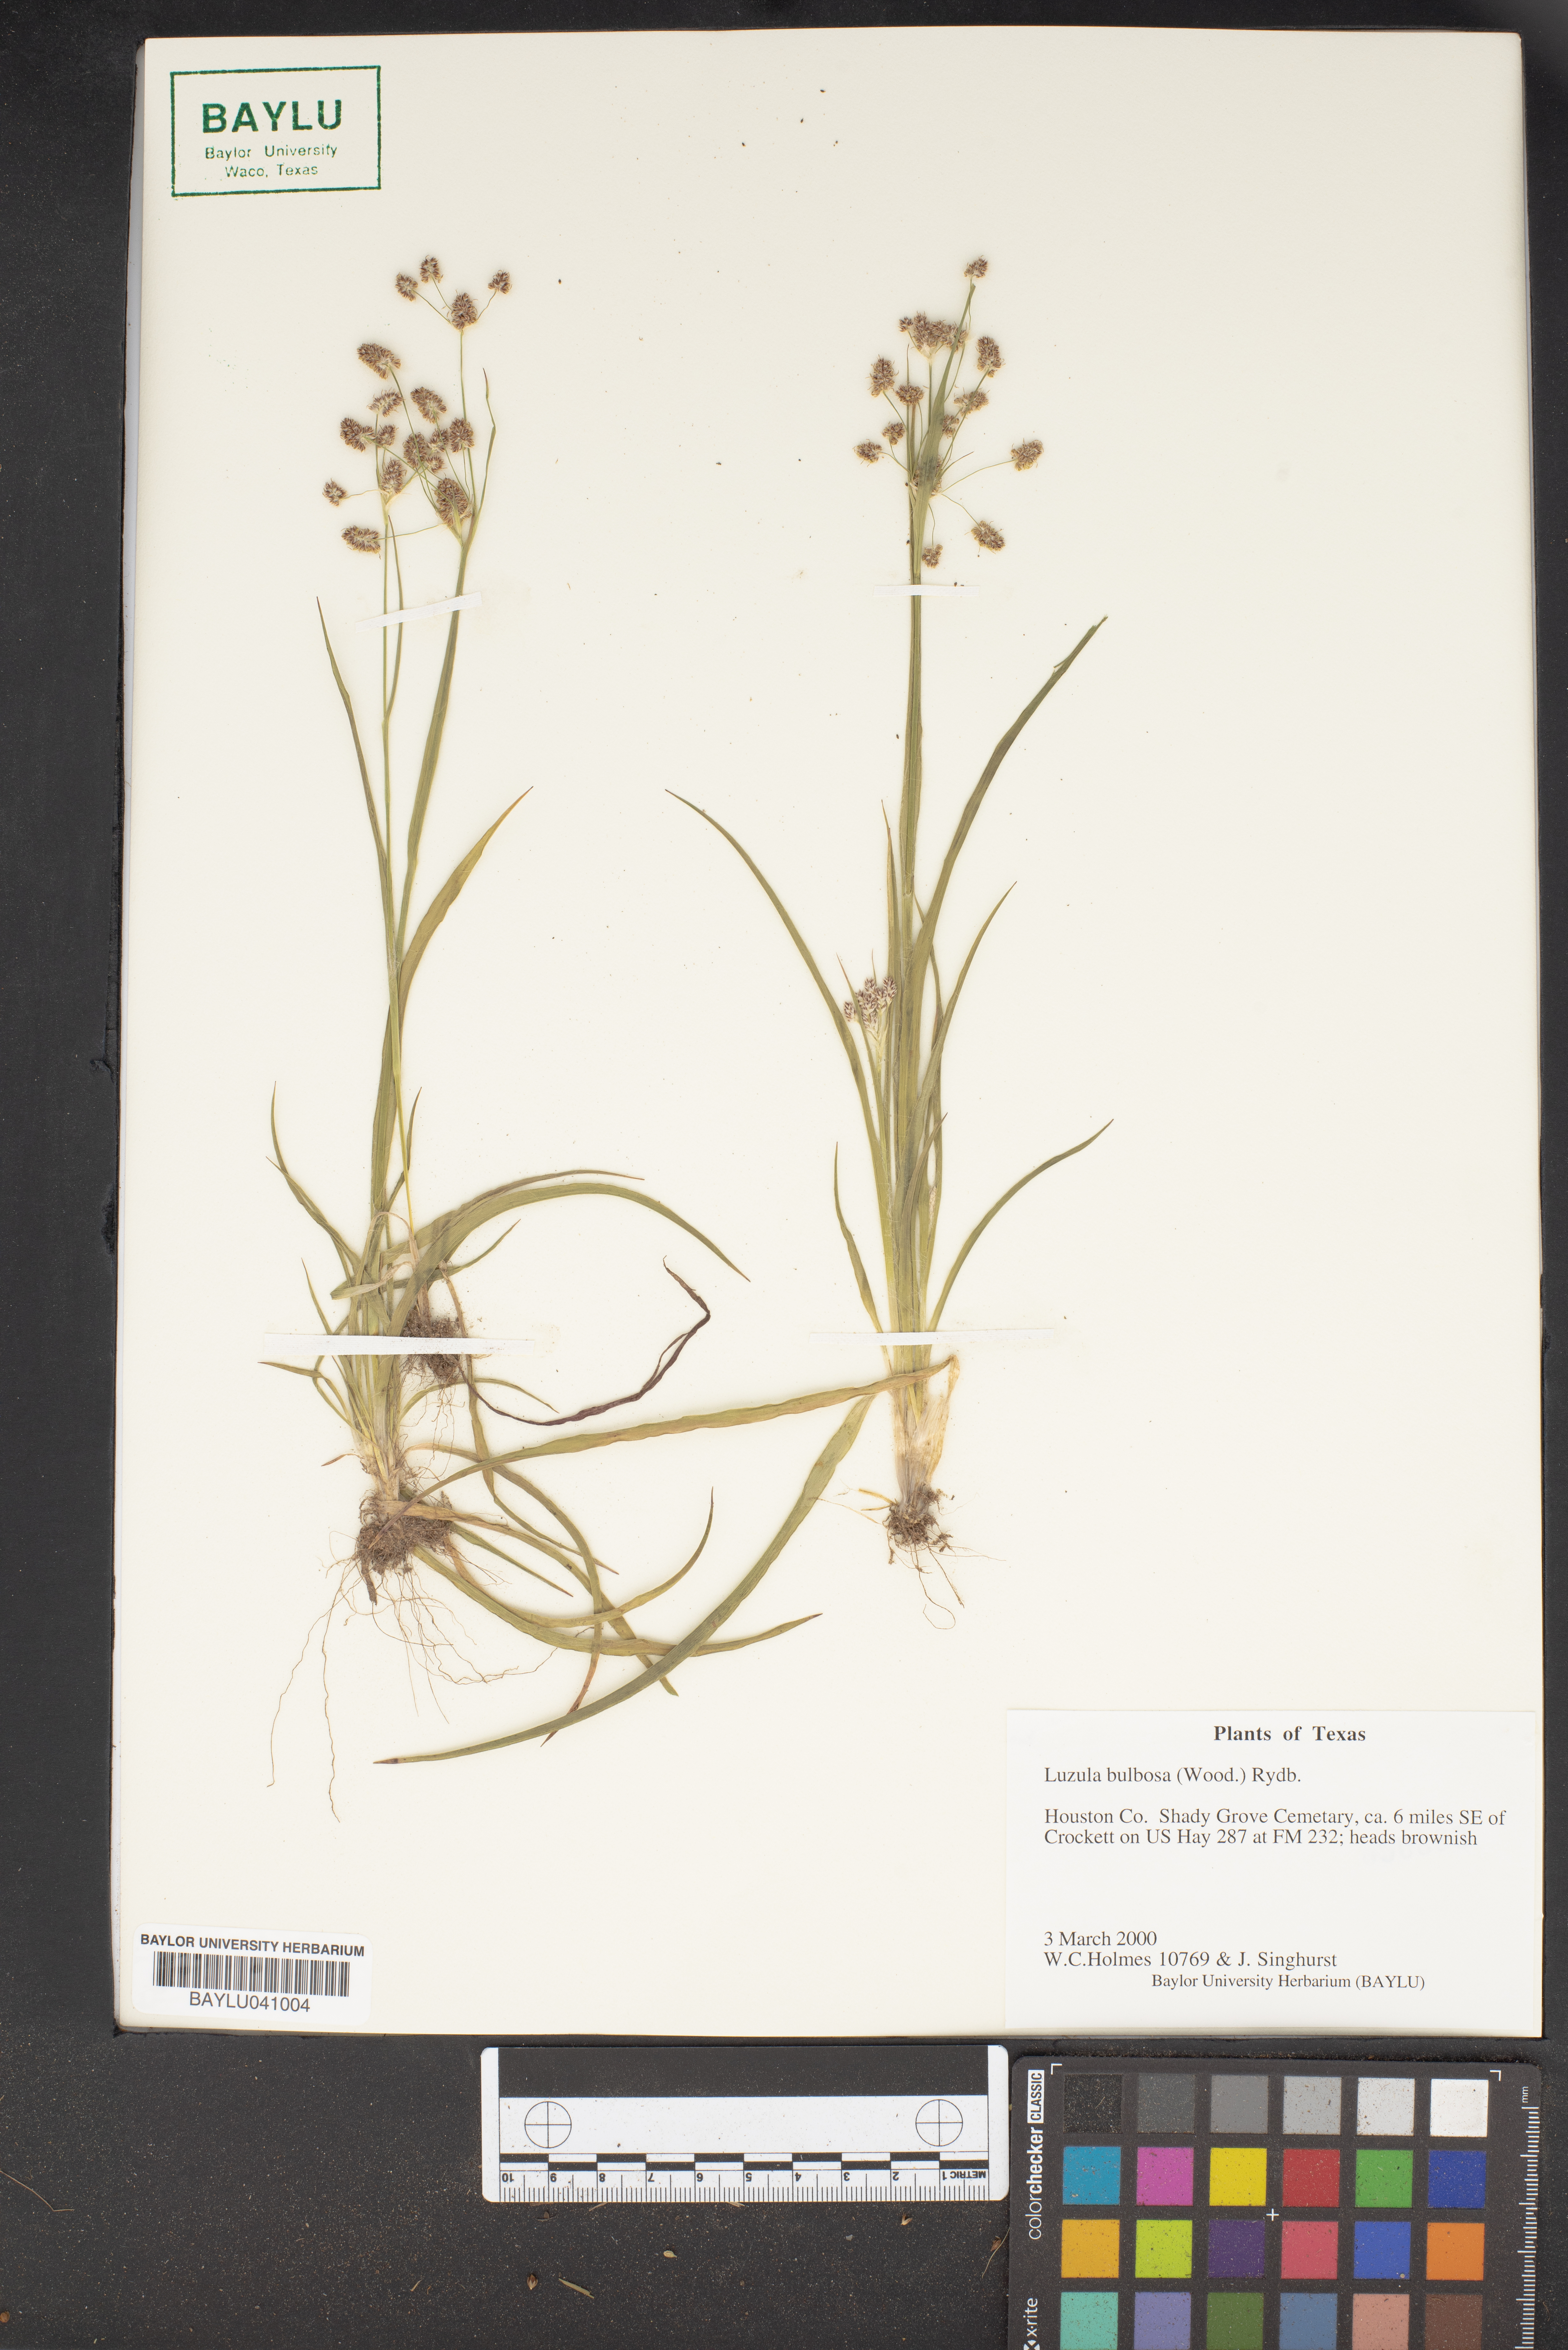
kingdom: Plantae
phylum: Tracheophyta
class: Liliopsida
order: Poales
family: Juncaceae
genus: Luzula
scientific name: Luzula bulbosa
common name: Bulbous woodrush
